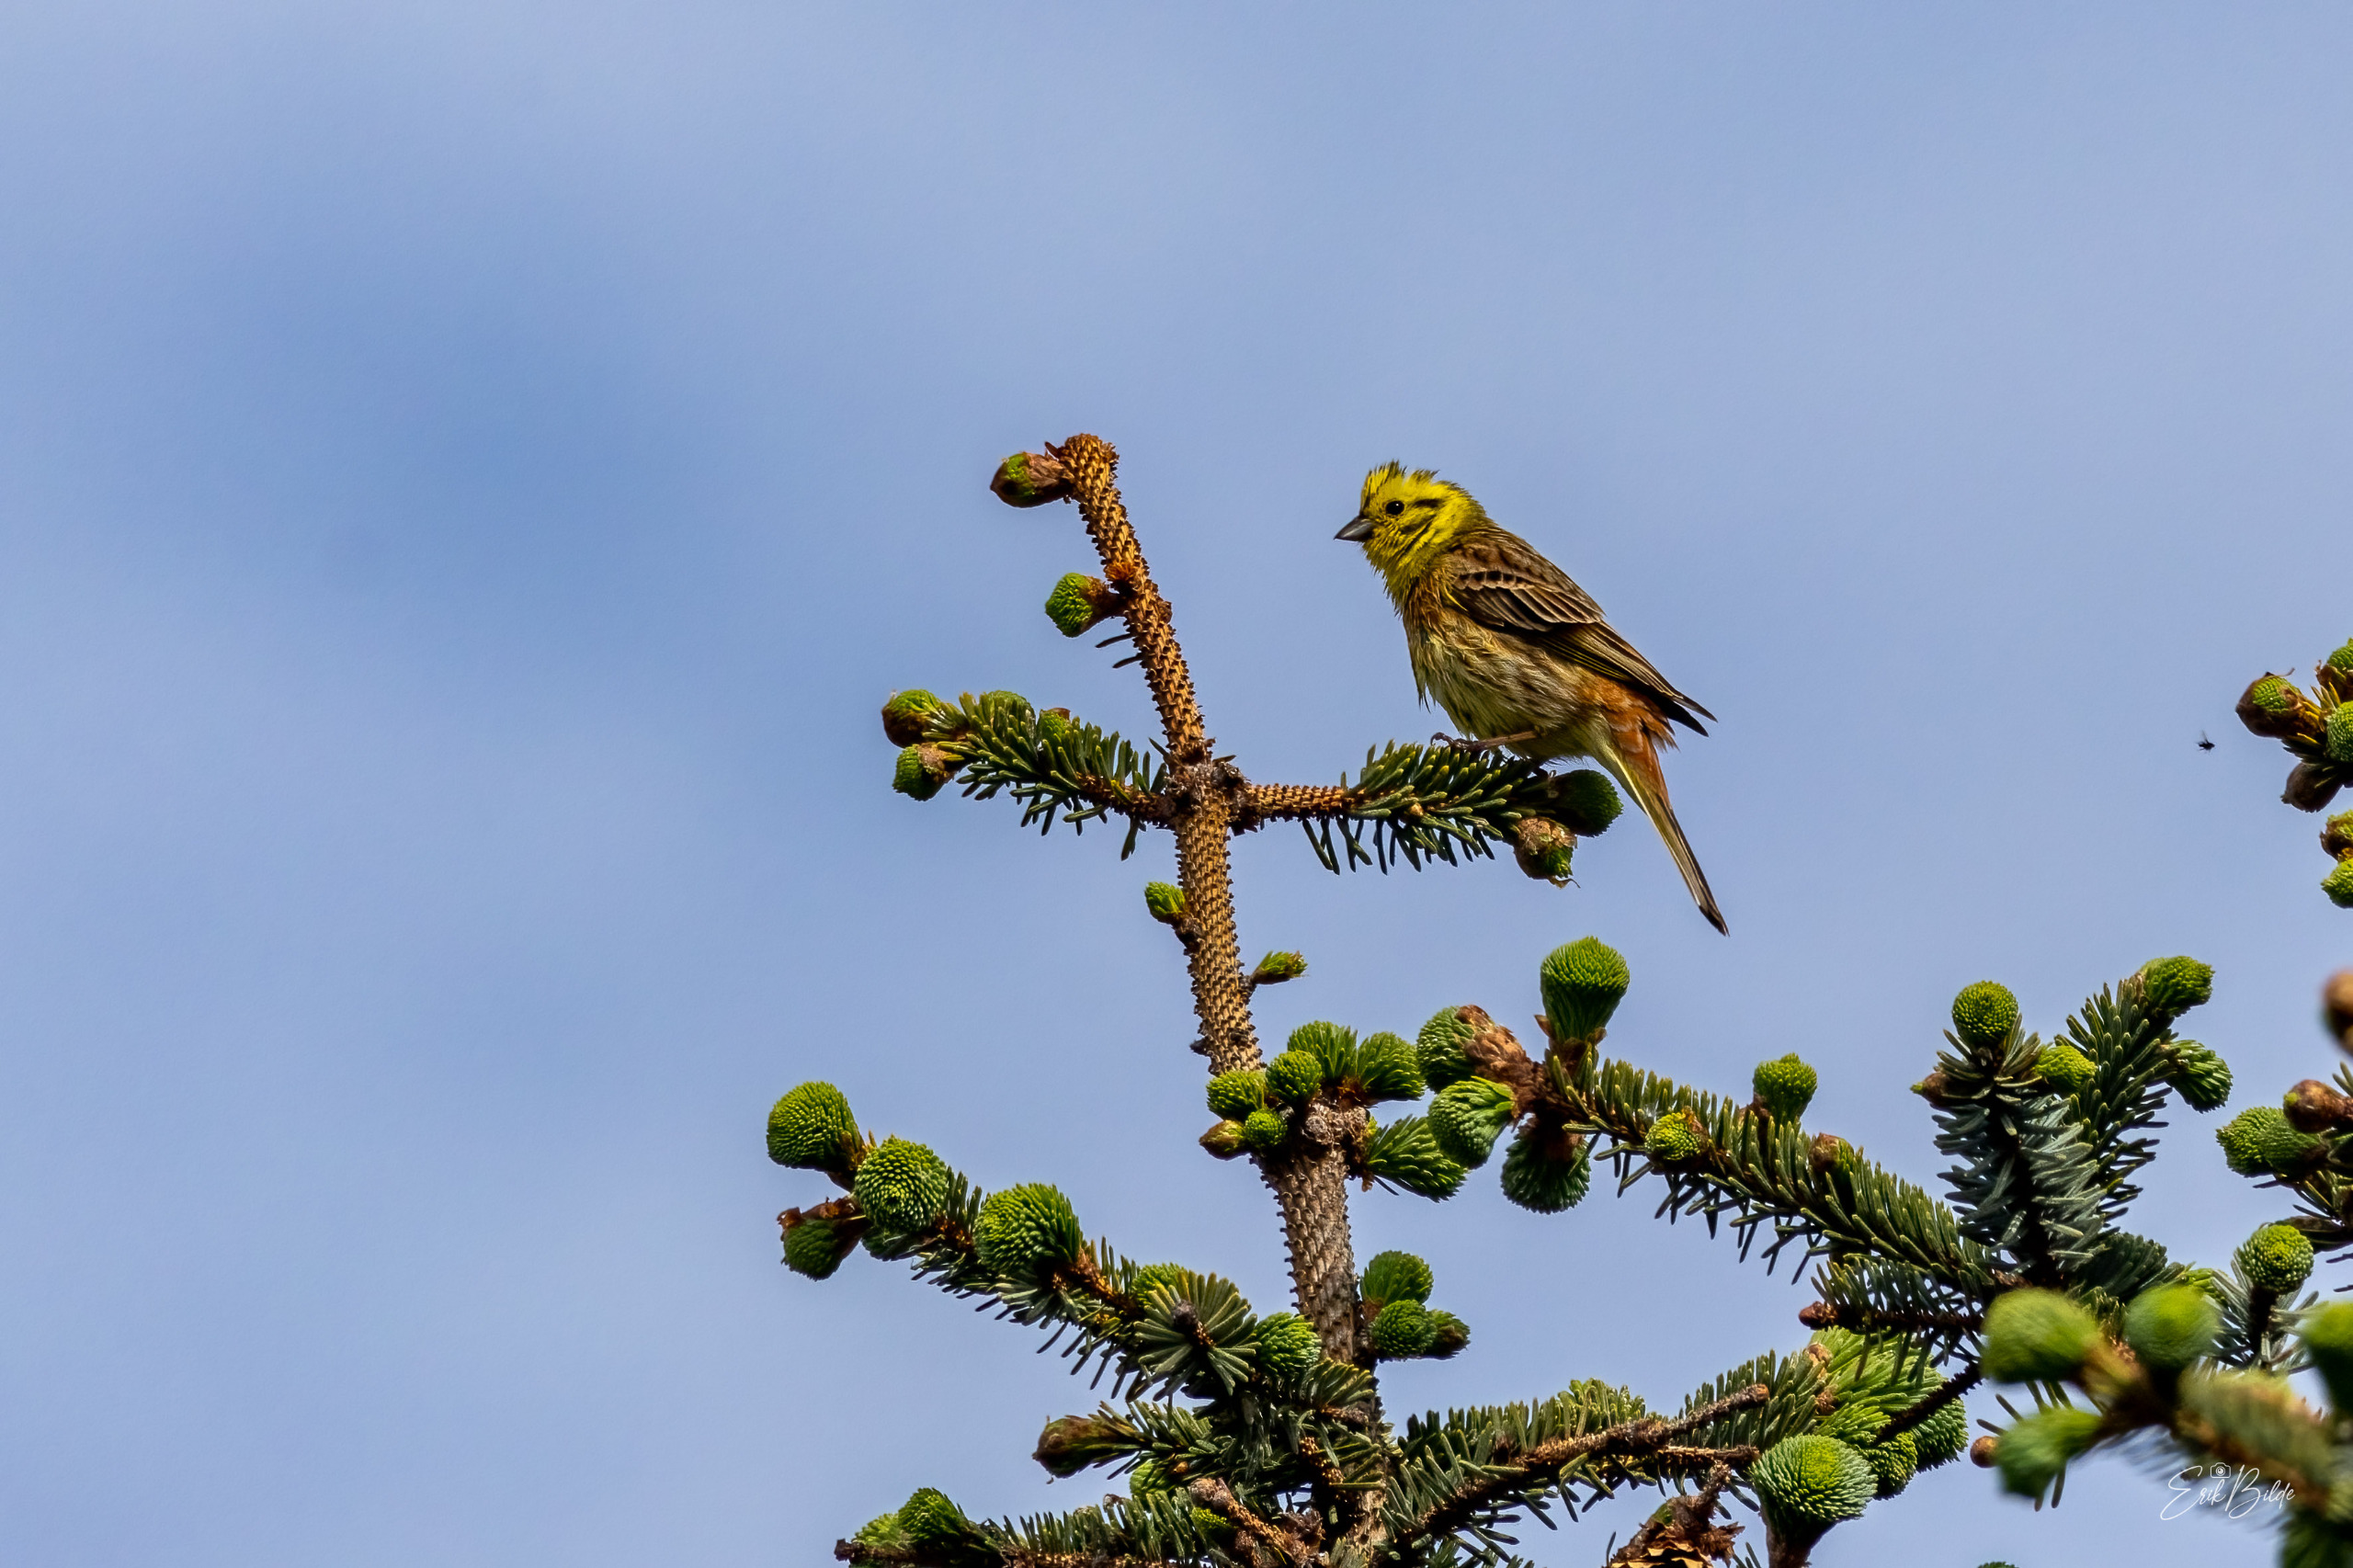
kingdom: Animalia
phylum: Chordata
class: Aves
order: Passeriformes
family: Emberizidae
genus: Emberiza
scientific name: Emberiza citrinella
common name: Gulspurv
